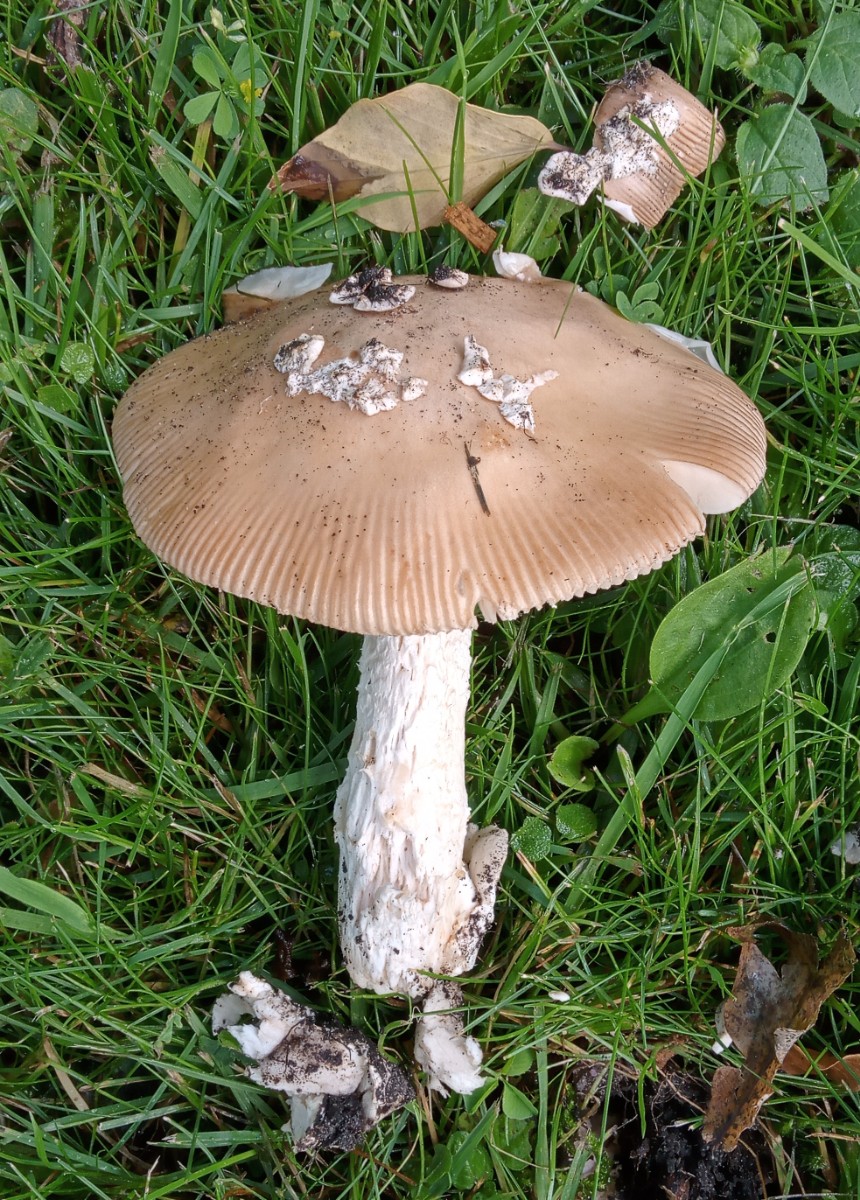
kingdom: Fungi
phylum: Basidiomycota
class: Agaricomycetes
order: Agaricales
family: Amanitaceae
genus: Amanita
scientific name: Amanita lividopallescens
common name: afblegende kam-fluesvamp
